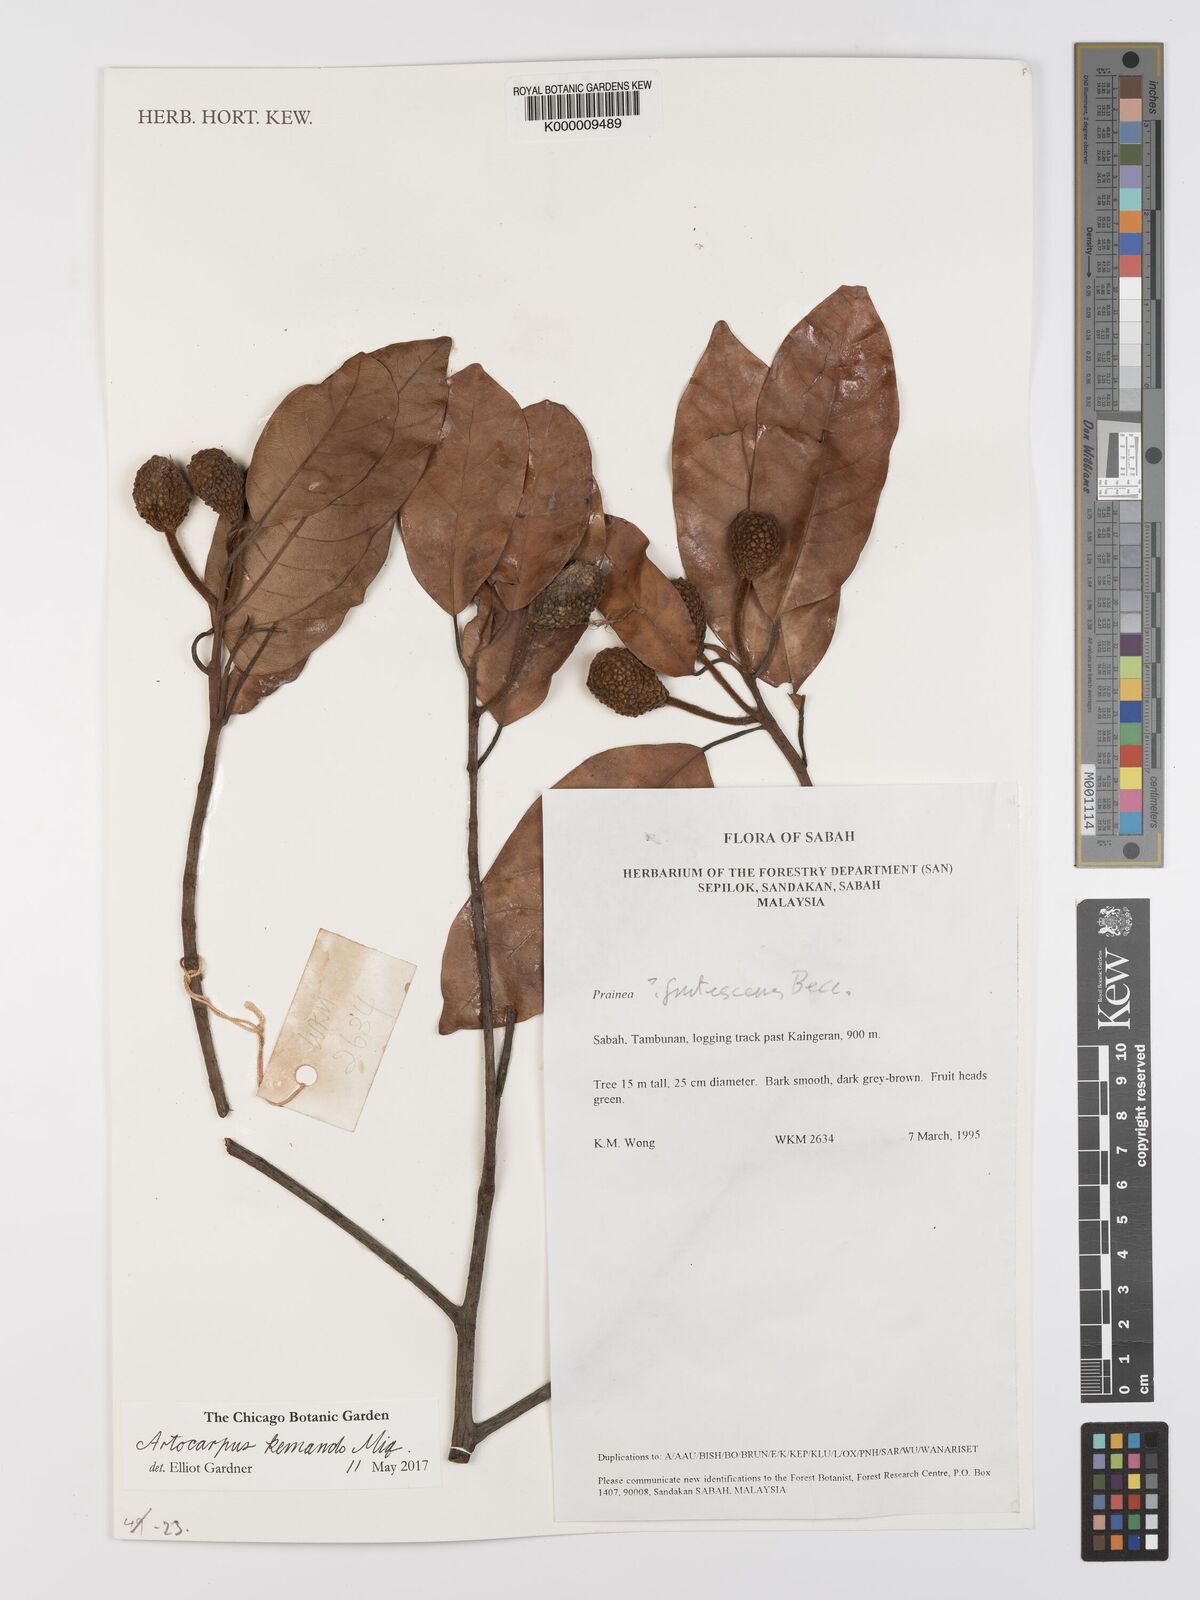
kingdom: Plantae
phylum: Tracheophyta
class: Magnoliopsida
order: Rosales
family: Moraceae
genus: Prainea
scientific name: Prainea scandens
